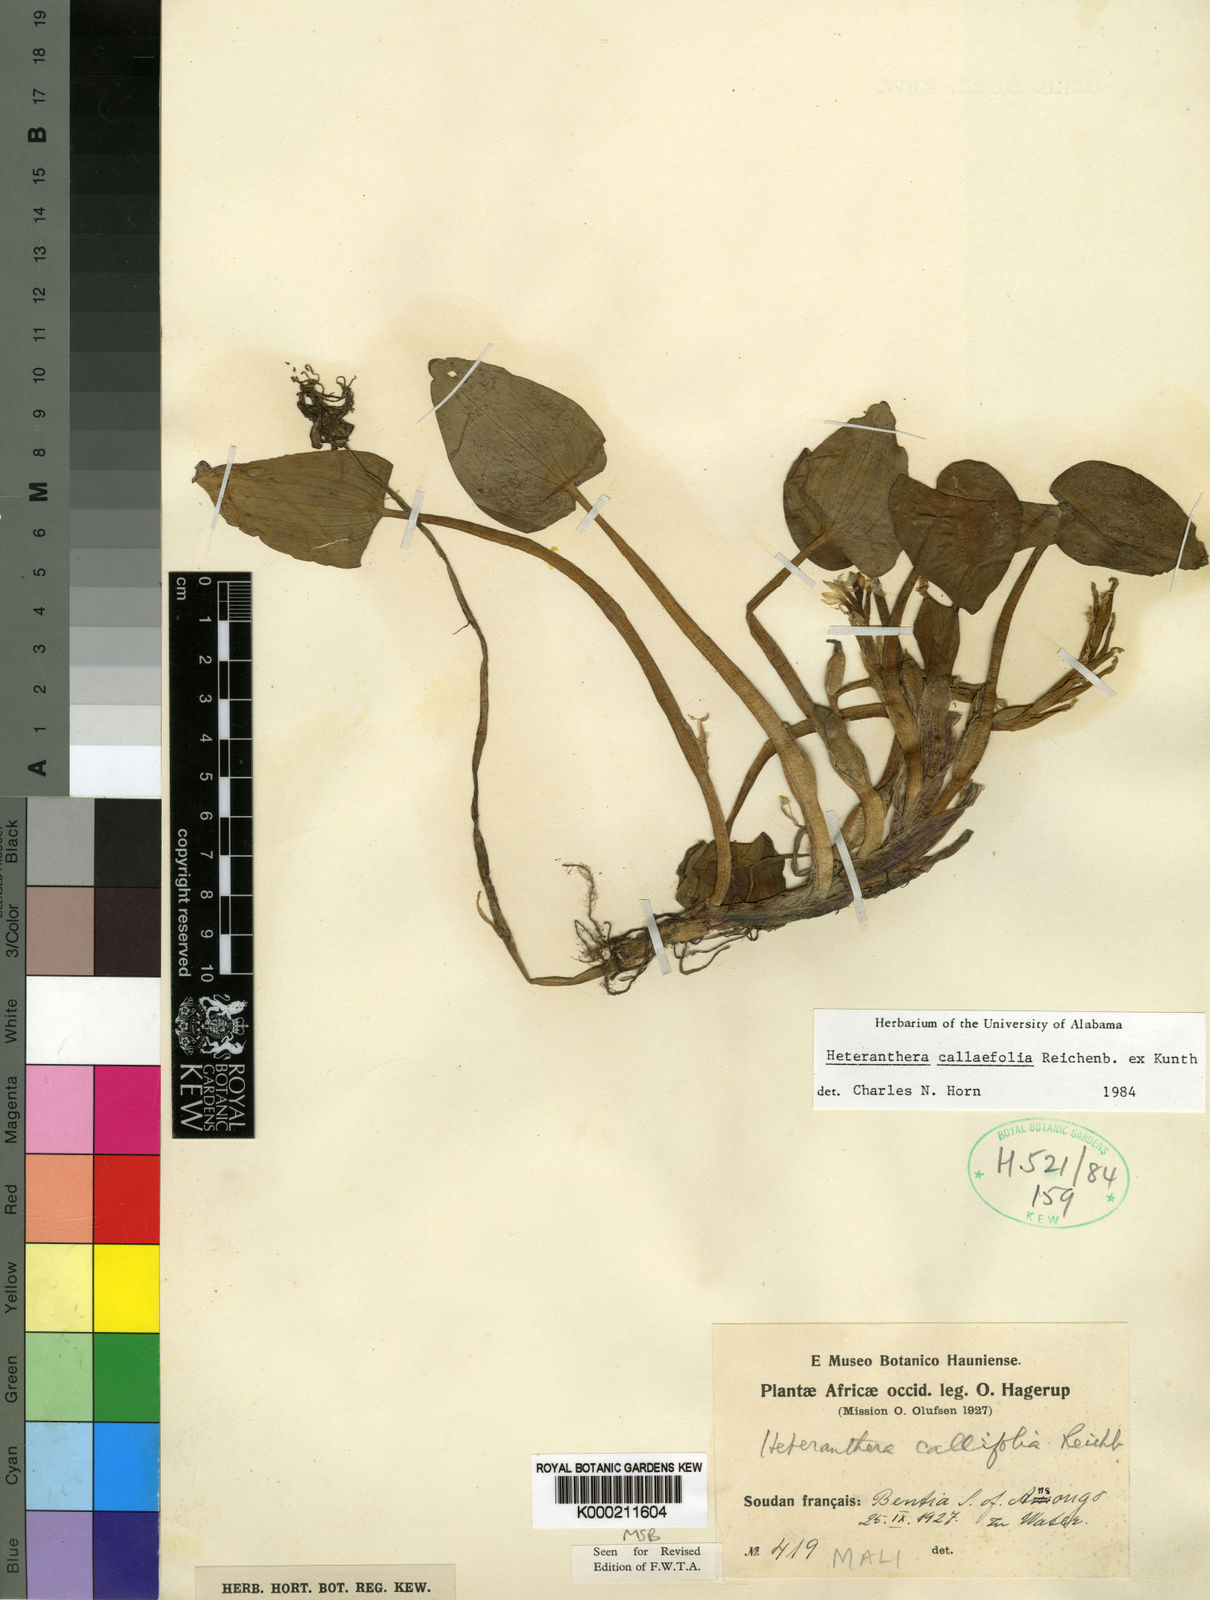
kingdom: Plantae
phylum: Tracheophyta
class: Liliopsida
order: Commelinales
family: Pontederiaceae
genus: Heteranthera
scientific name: Heteranthera callifolia
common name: Mud plantain
